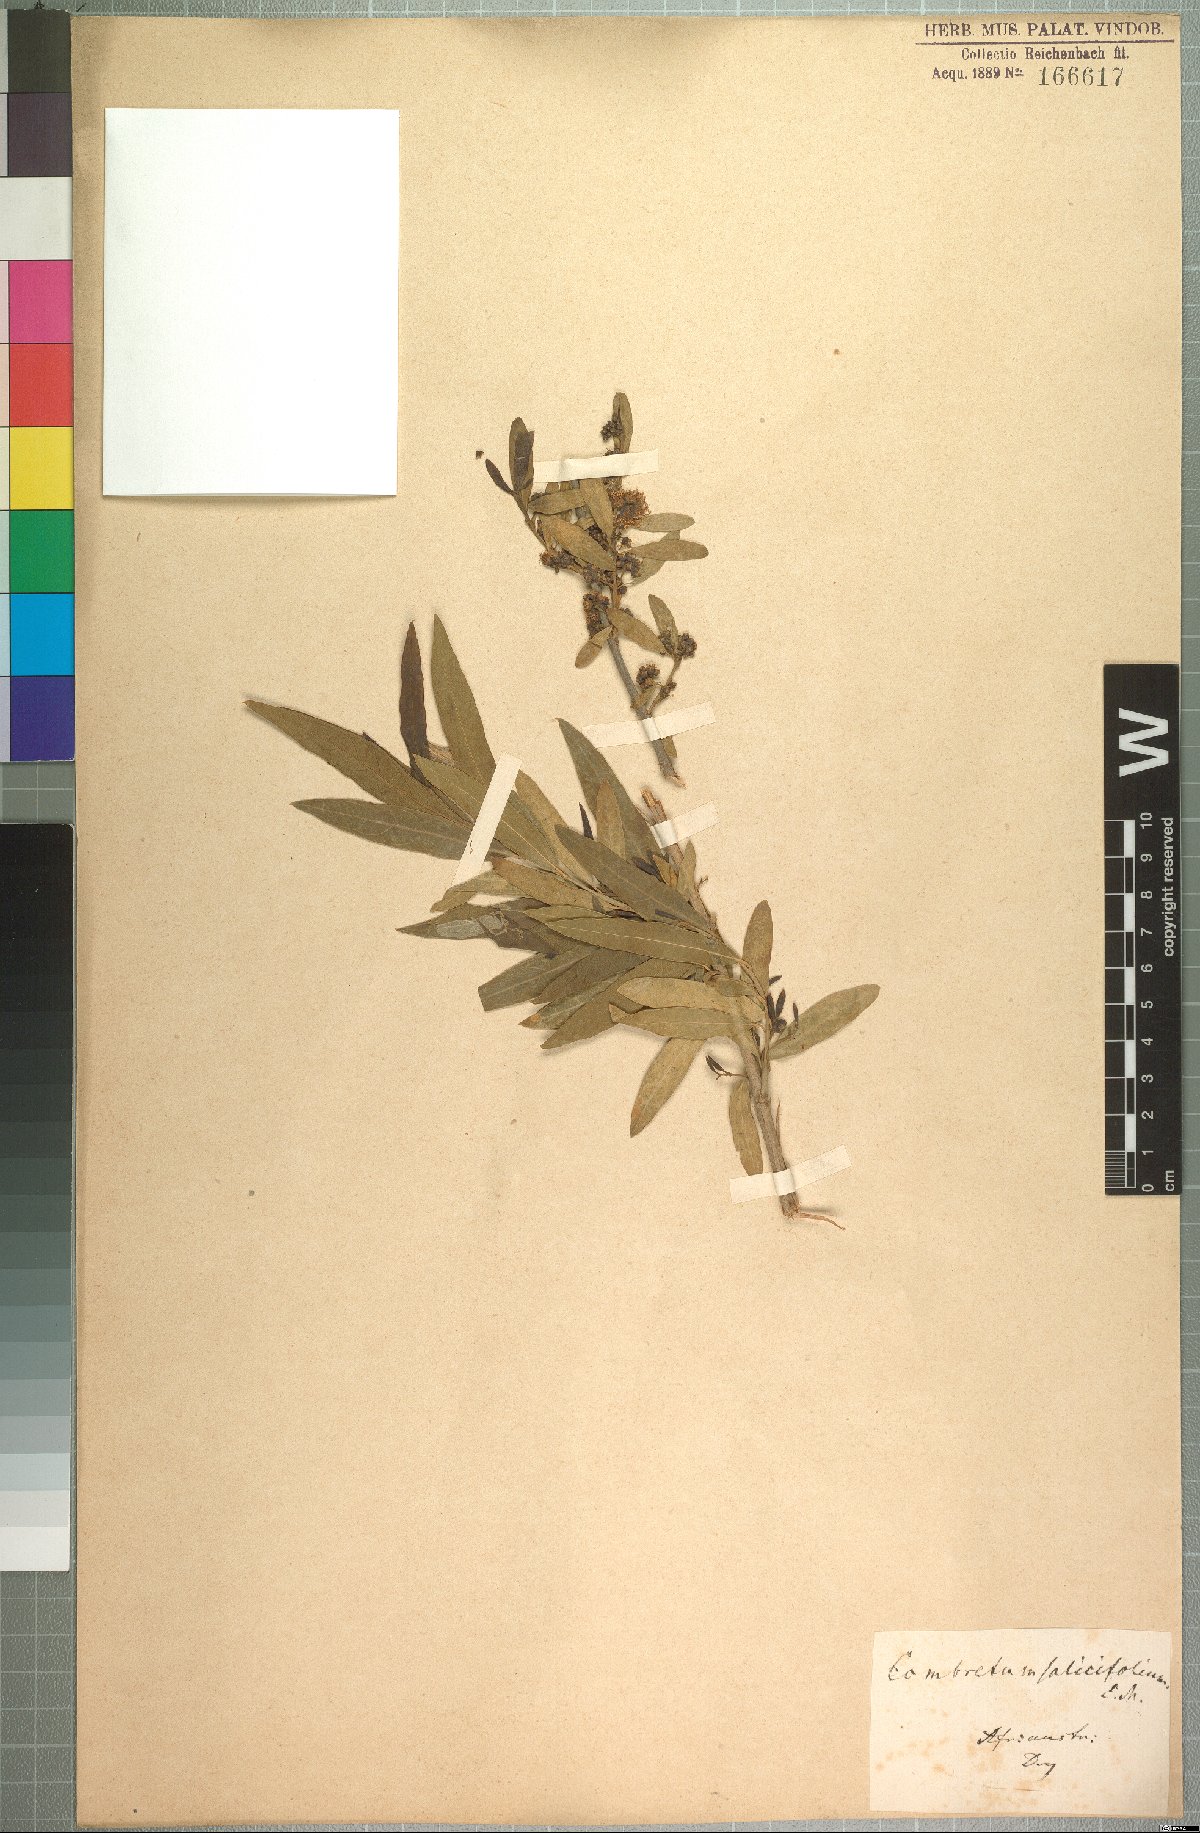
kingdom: Plantae
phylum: Tracheophyta
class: Magnoliopsida
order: Myrtales
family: Combretaceae
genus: Combretum
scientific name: Combretum caffrum
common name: Cape bushwillow
